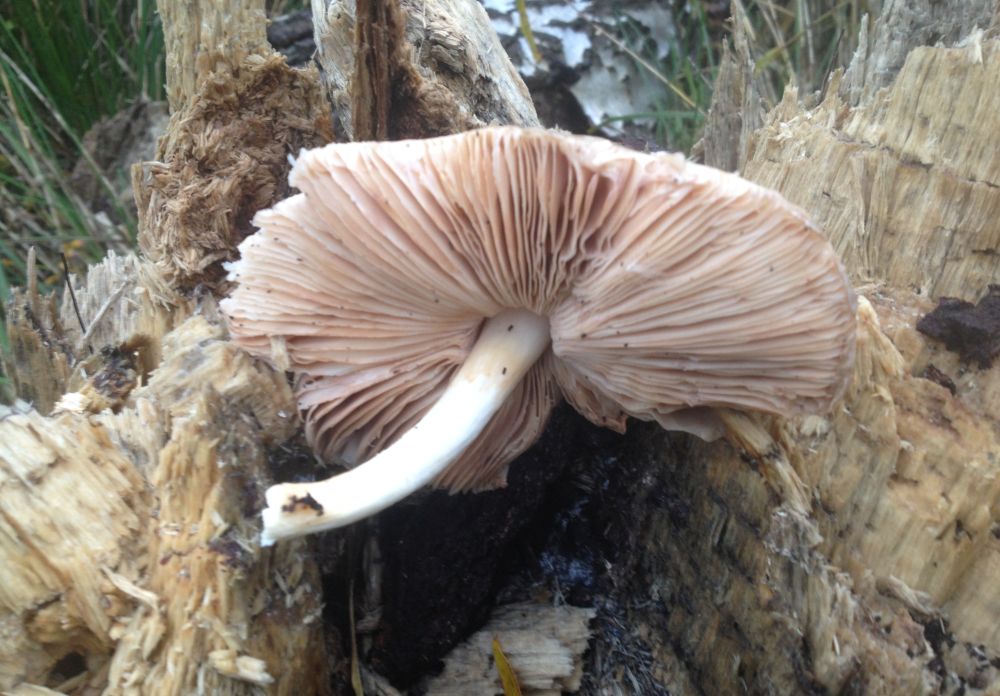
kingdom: Fungi
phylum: Basidiomycota
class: Agaricomycetes
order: Agaricales
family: Pluteaceae
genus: Pluteus
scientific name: Pluteus
